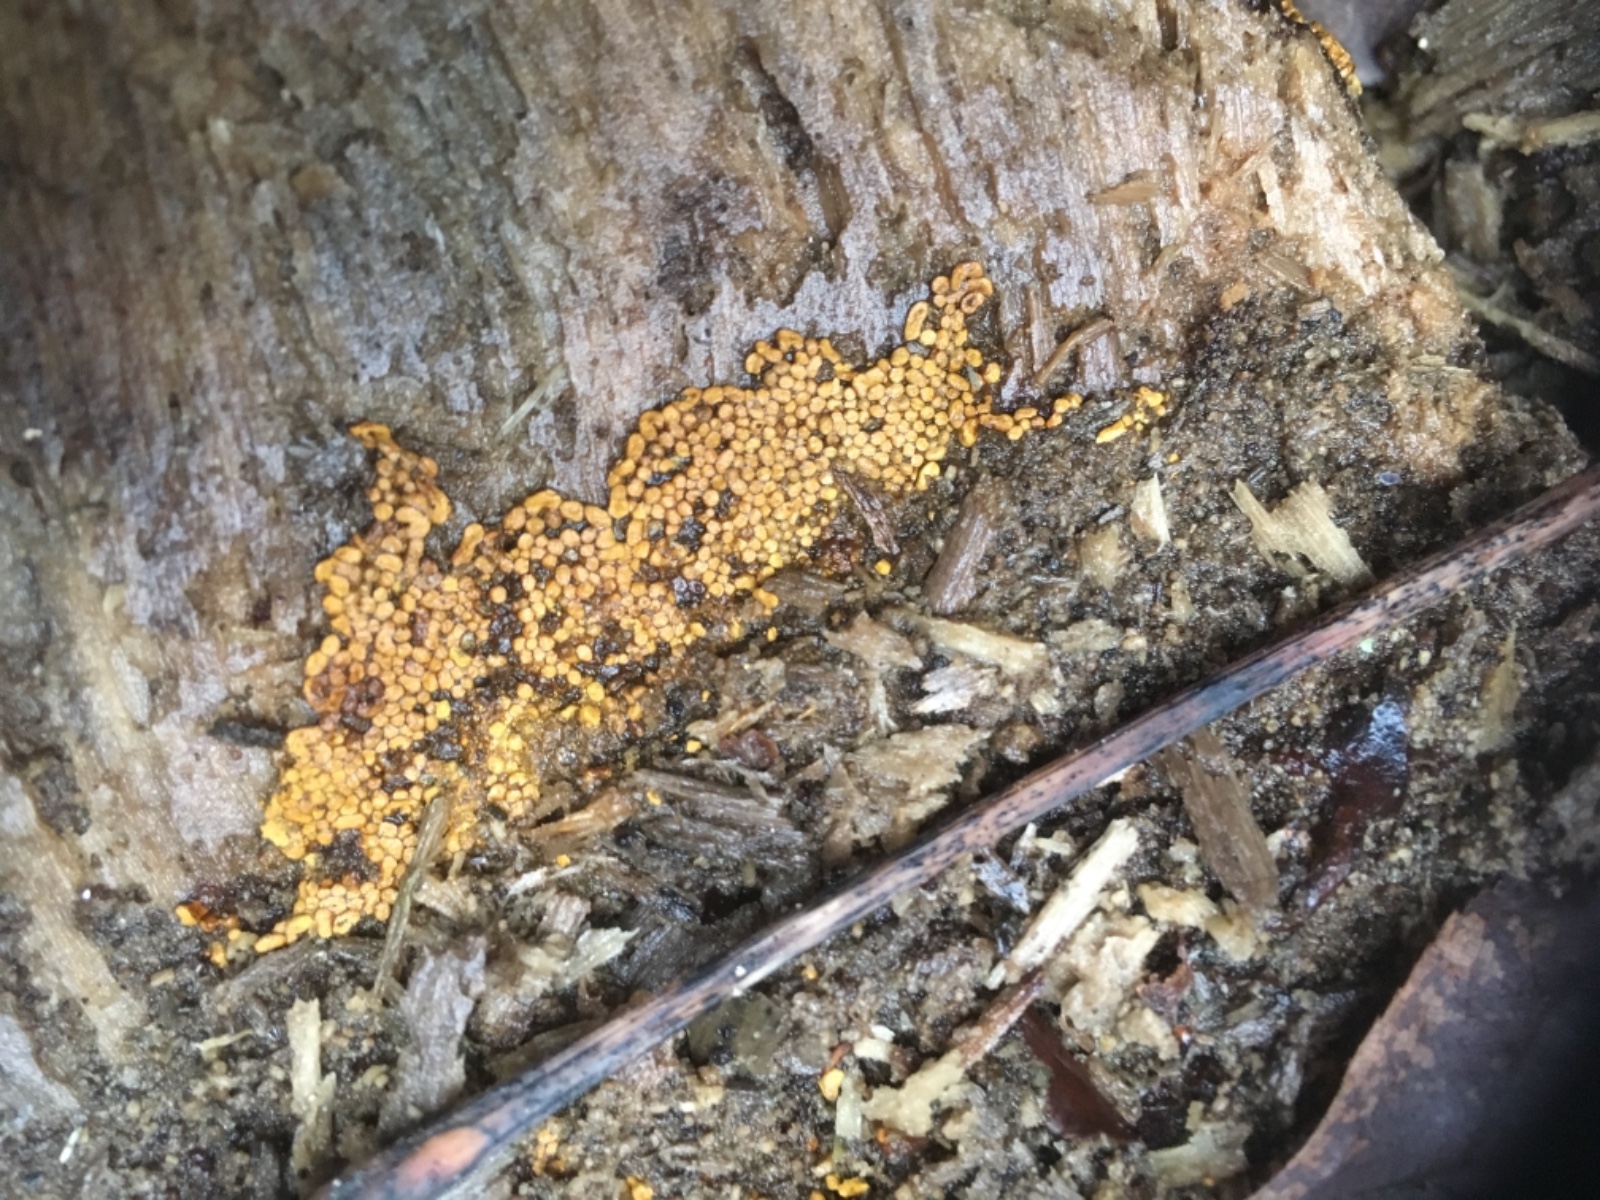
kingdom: Protozoa
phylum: Mycetozoa
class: Myxomycetes
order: Trichiales
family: Trichiaceae
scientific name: Trichiaceae
